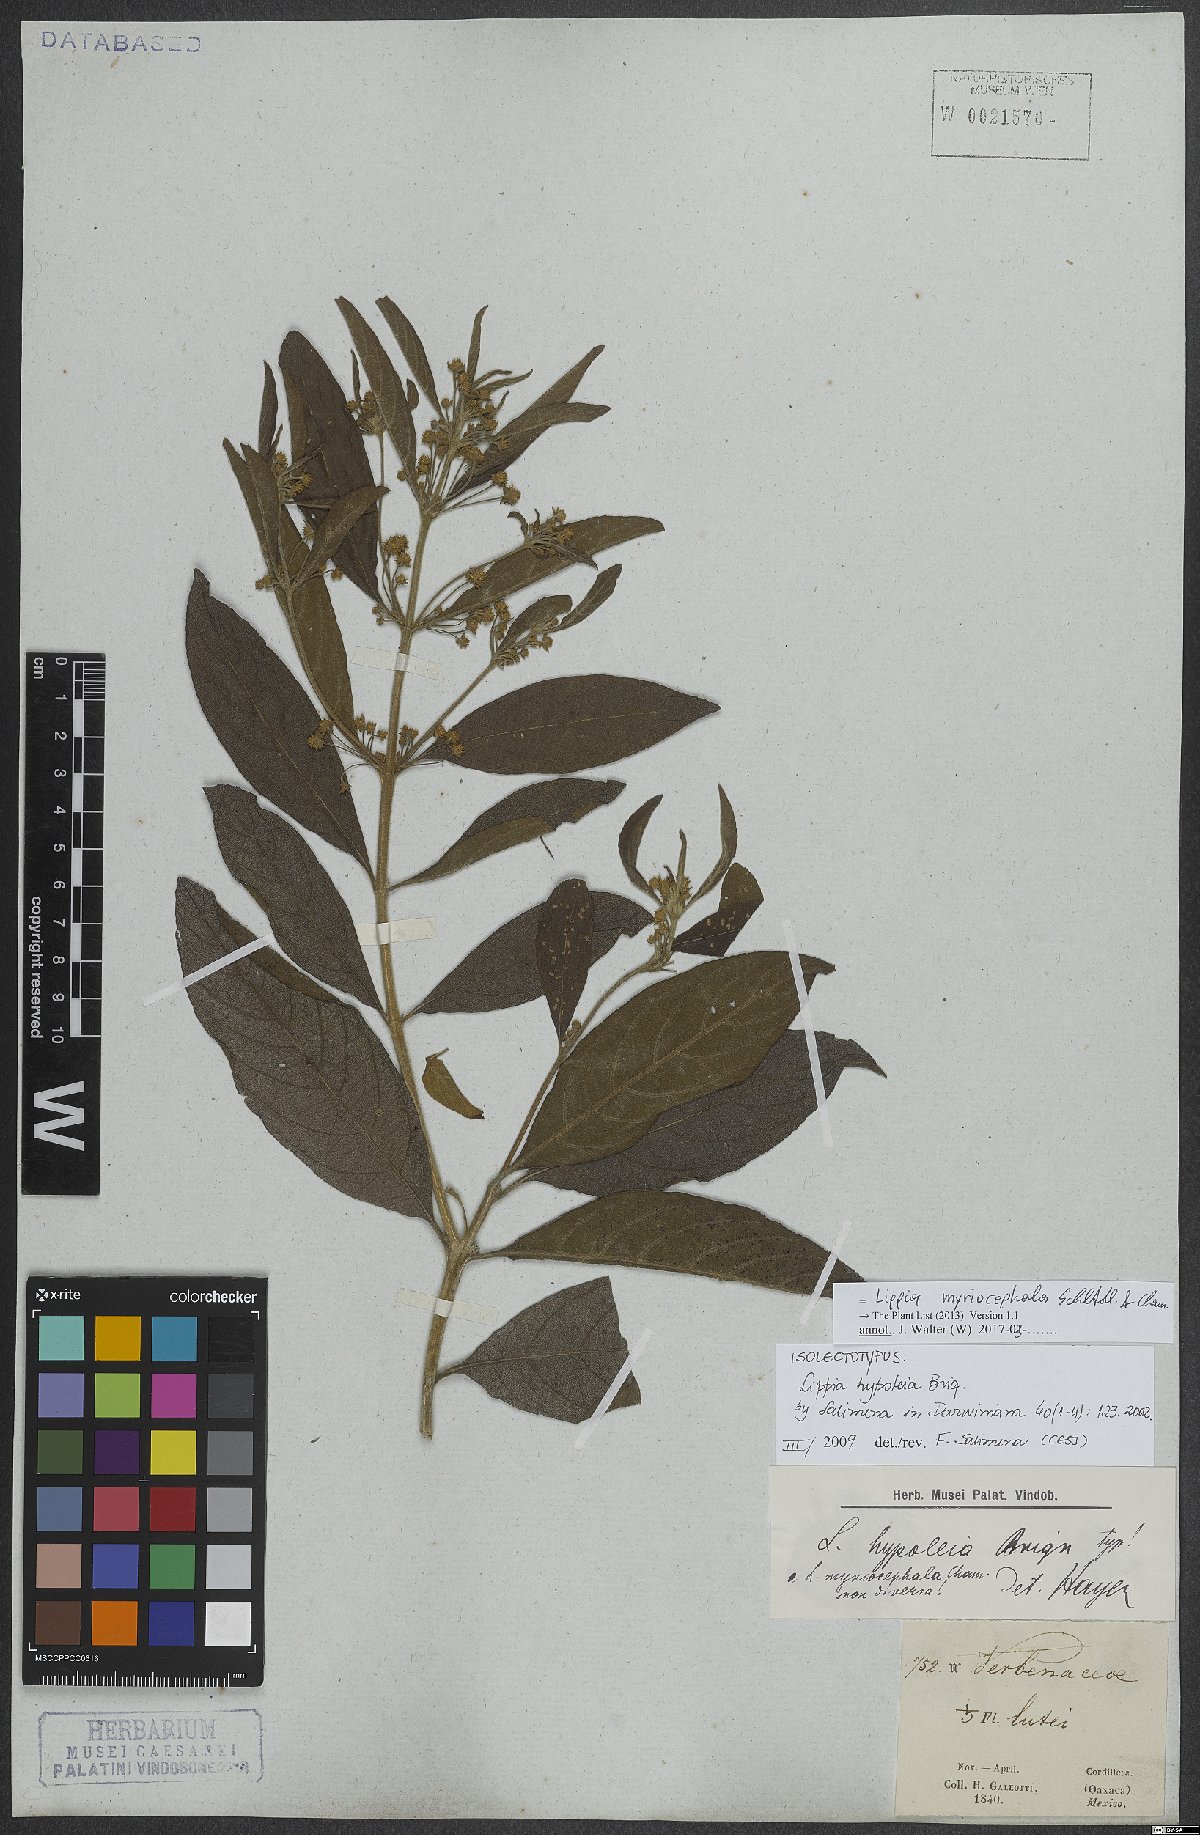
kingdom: Plantae
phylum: Tracheophyta
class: Magnoliopsida
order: Lamiales
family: Verbenaceae
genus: Lippia
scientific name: Lippia myriocephala
